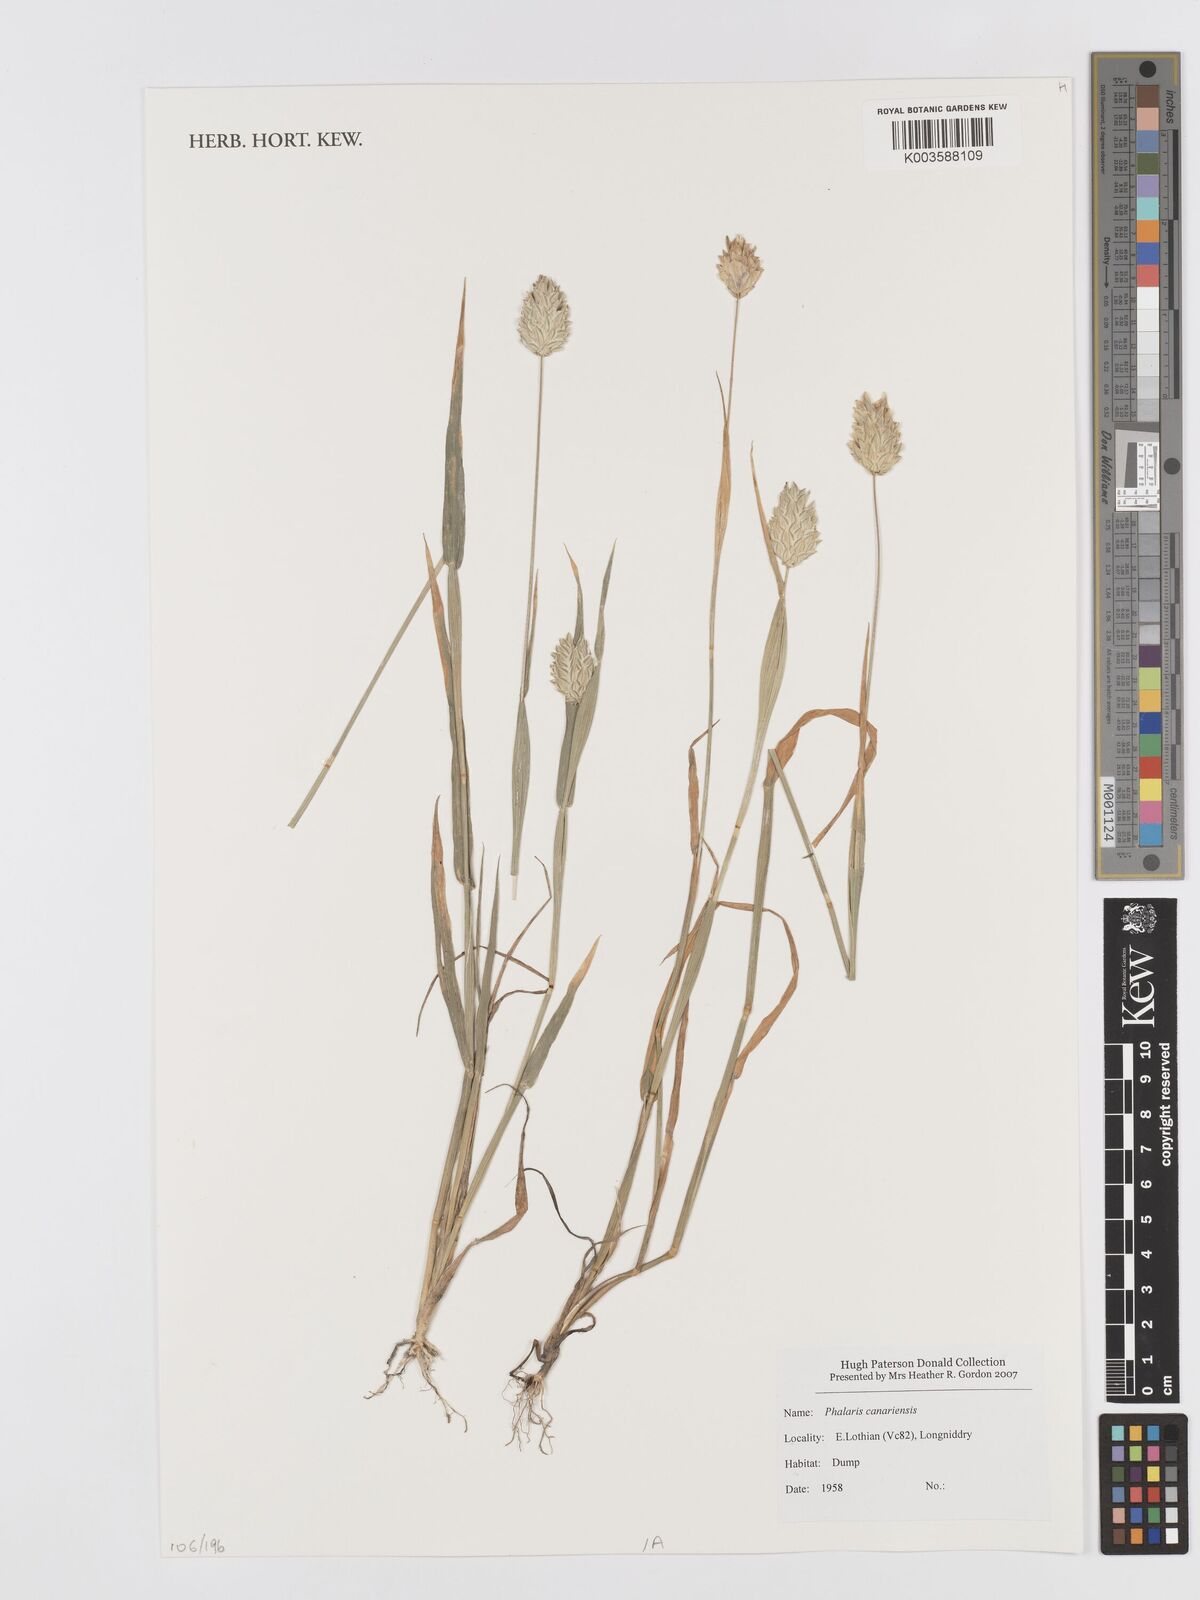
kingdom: Plantae
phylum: Tracheophyta
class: Liliopsida
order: Poales
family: Poaceae
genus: Phalaris
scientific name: Phalaris canariensis
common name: Annual canarygrass
